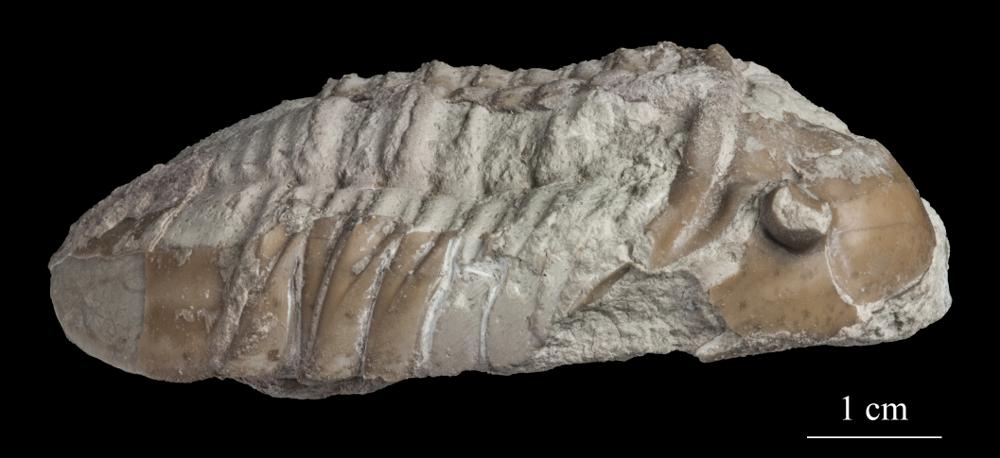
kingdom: Animalia
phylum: Arthropoda
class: Trilobita
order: Asaphida
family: Asaphidae
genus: Asaphus
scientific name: Asaphus lepidurus
